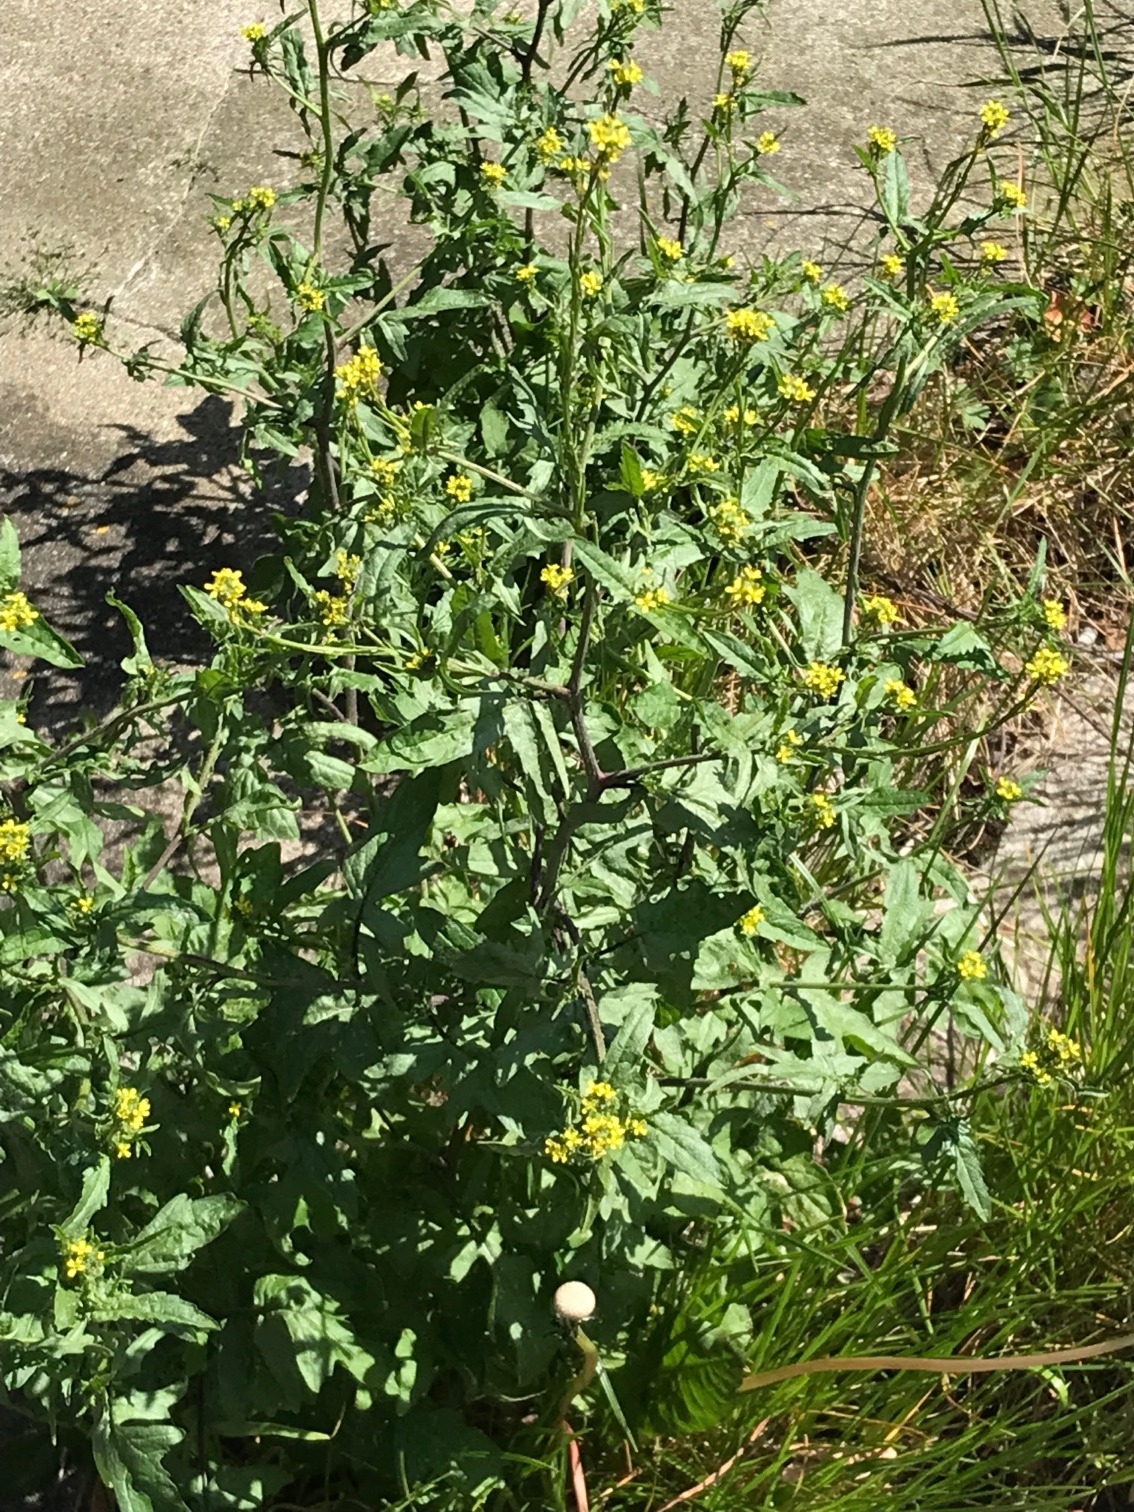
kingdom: Plantae
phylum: Tracheophyta
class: Magnoliopsida
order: Brassicales
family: Brassicaceae
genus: Sisymbrium
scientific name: Sisymbrium officinale
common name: Rank vejsennep
